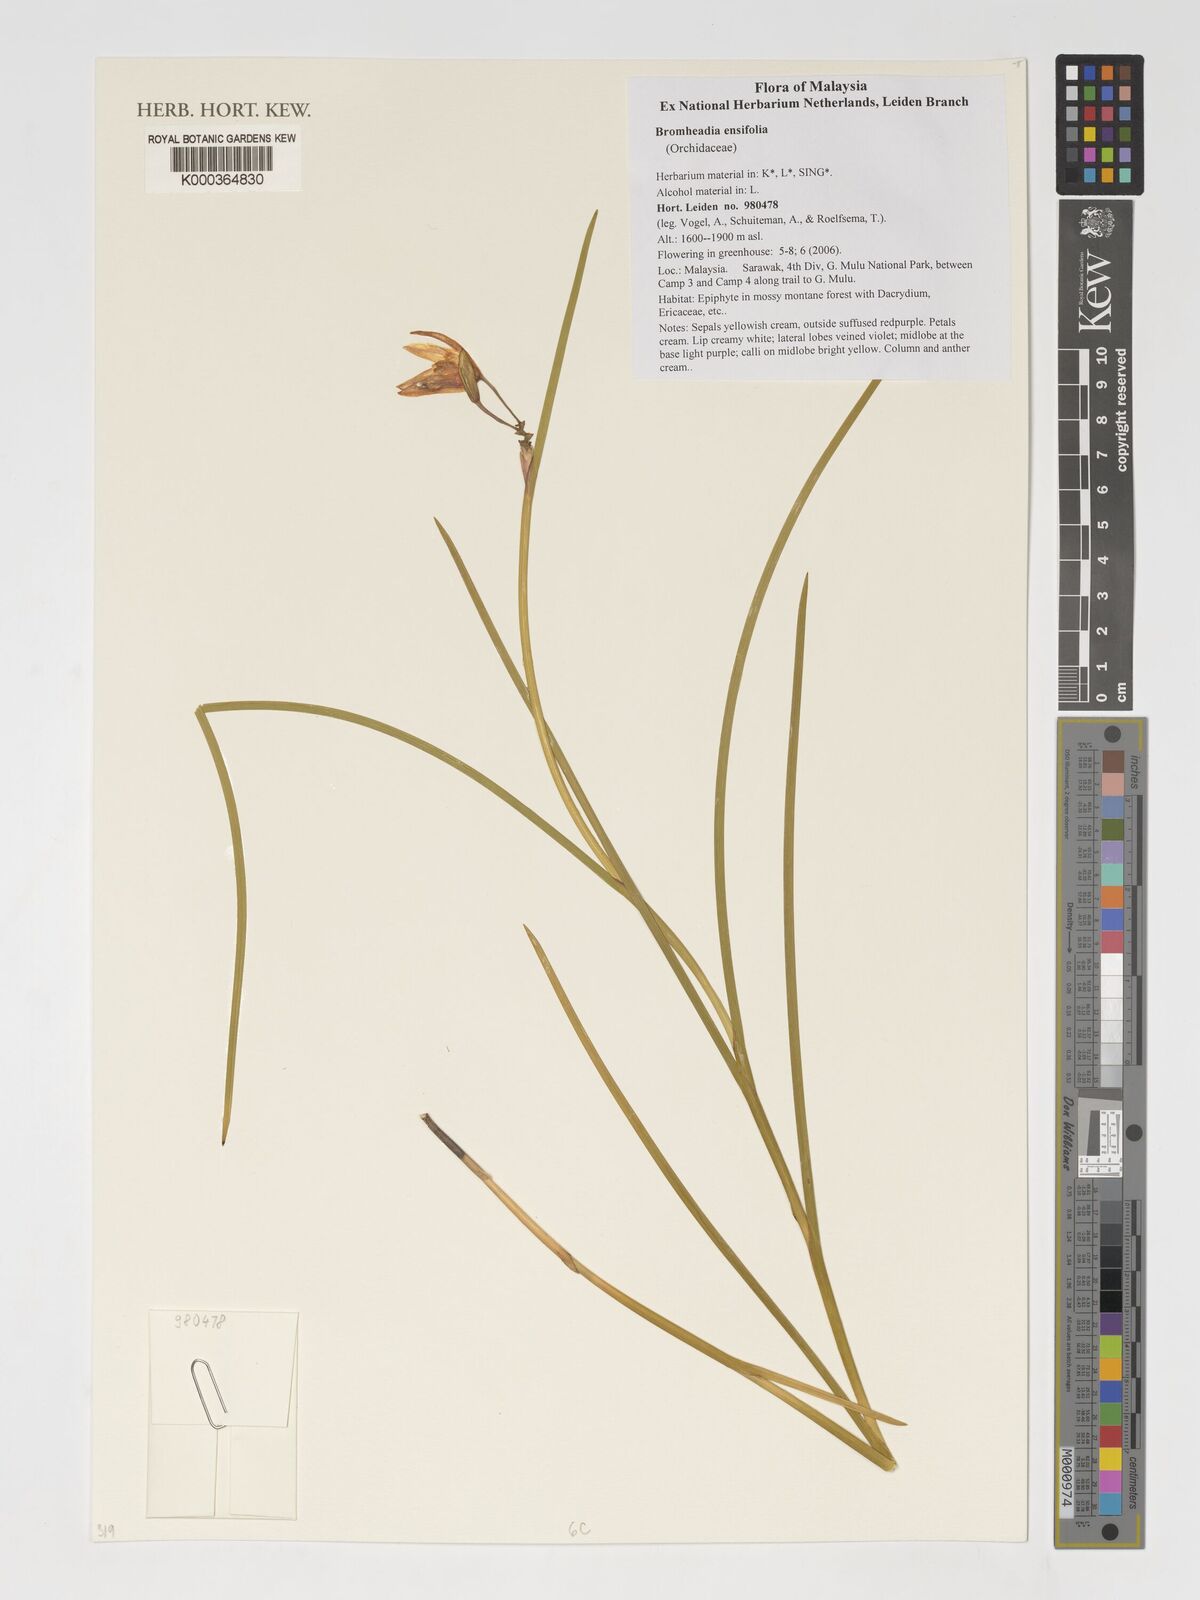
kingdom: Plantae
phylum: Tracheophyta
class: Liliopsida
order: Asparagales
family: Orchidaceae
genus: Bromheadia
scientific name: Bromheadia ensifolia
